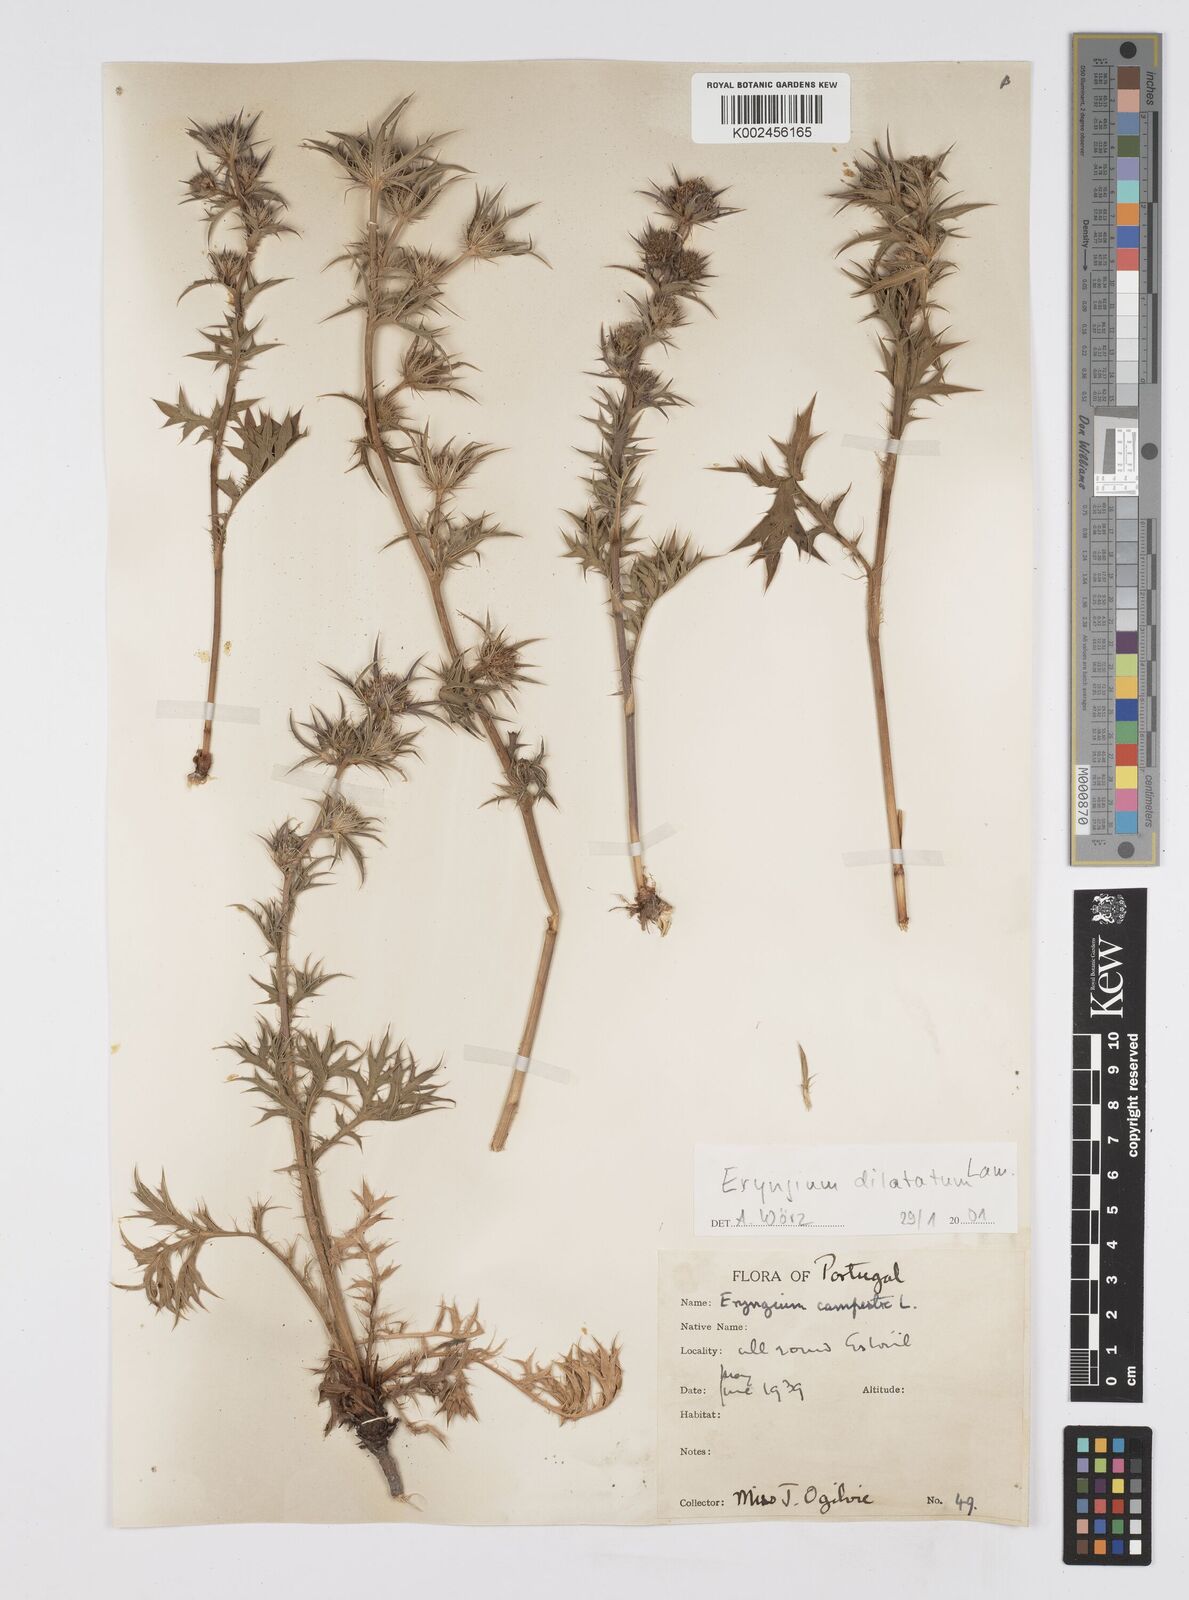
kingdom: Plantae
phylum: Tracheophyta
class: Magnoliopsida
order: Apiales
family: Apiaceae
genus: Eryngium
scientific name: Eryngium dilatatum
